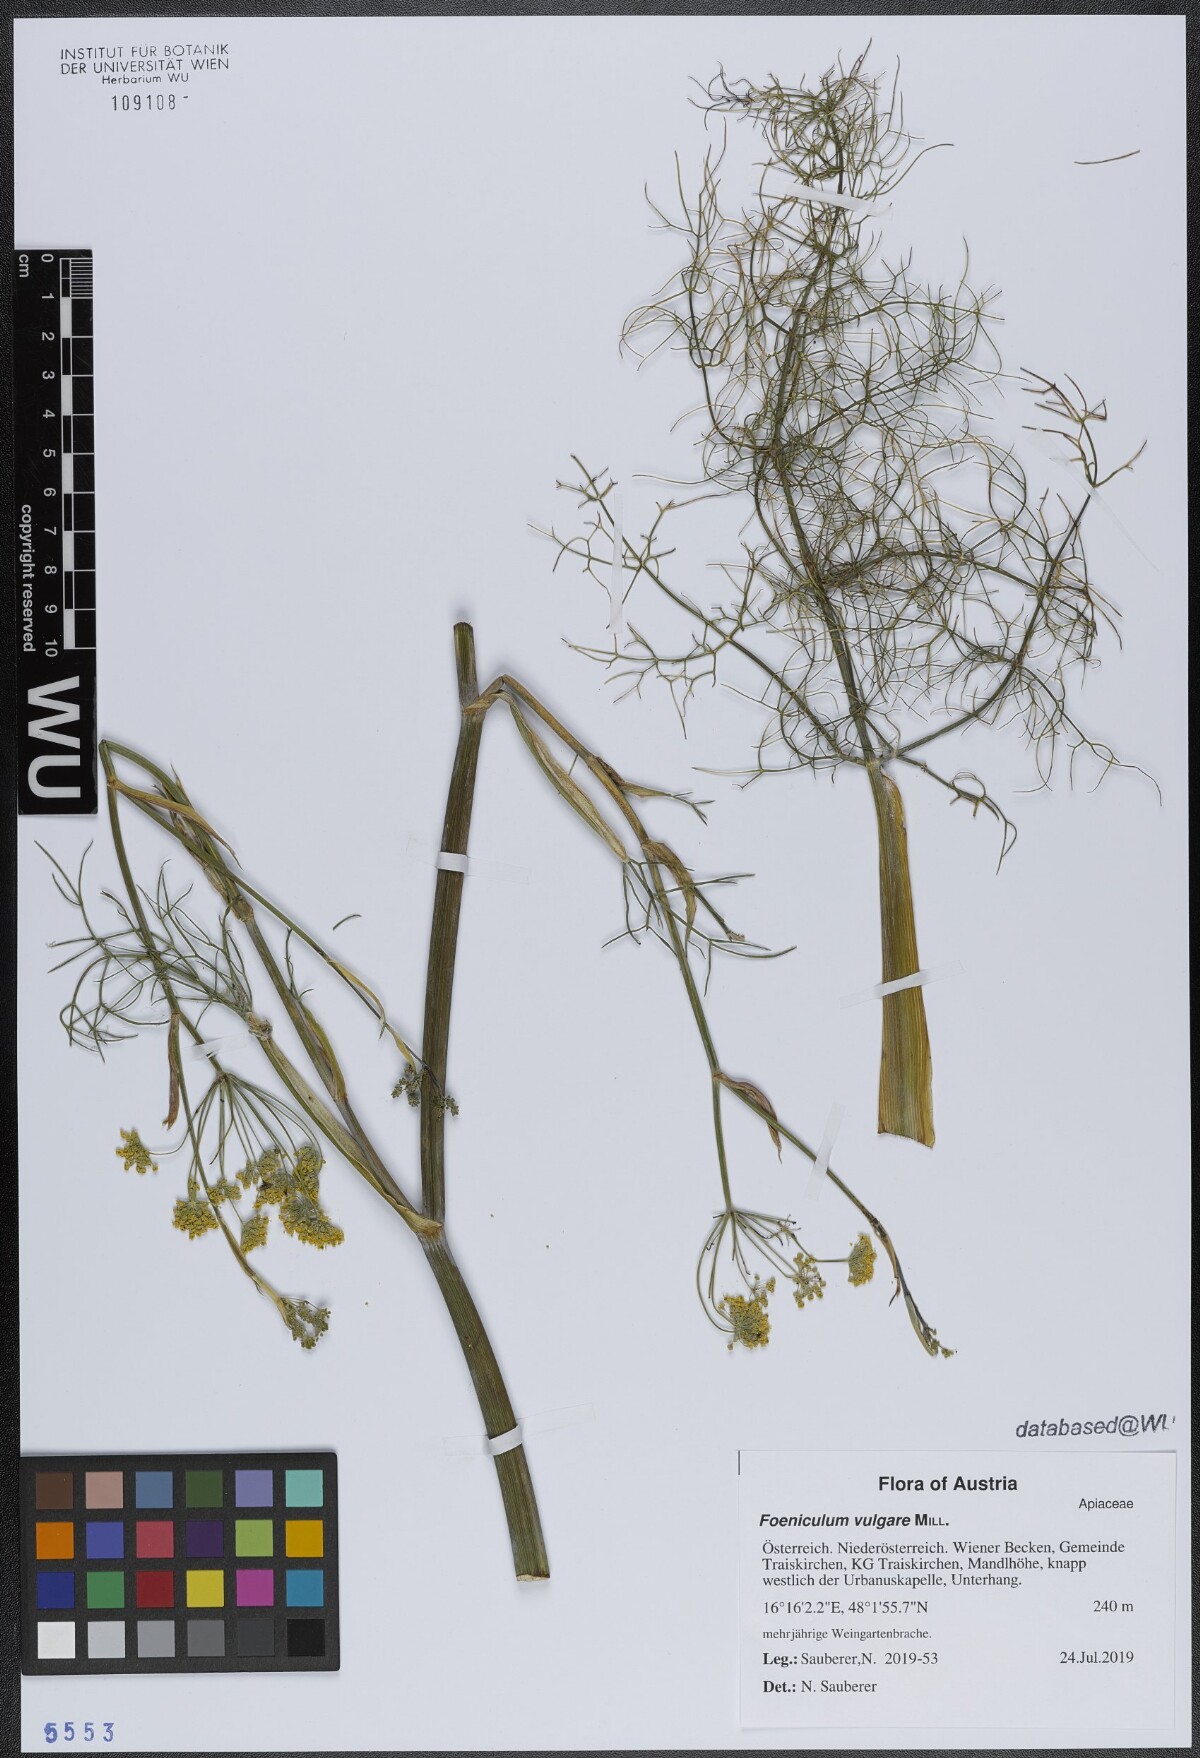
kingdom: Plantae
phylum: Tracheophyta
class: Magnoliopsida
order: Apiales
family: Apiaceae
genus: Foeniculum
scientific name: Foeniculum vulgare
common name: Fennel
